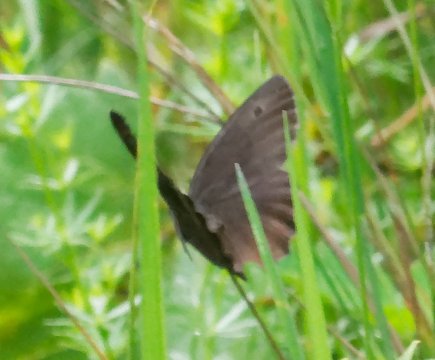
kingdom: Animalia
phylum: Arthropoda
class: Insecta
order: Lepidoptera
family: Nymphalidae
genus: Cercyonis
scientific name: Cercyonis pegala
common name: Common Wood-Nymph
